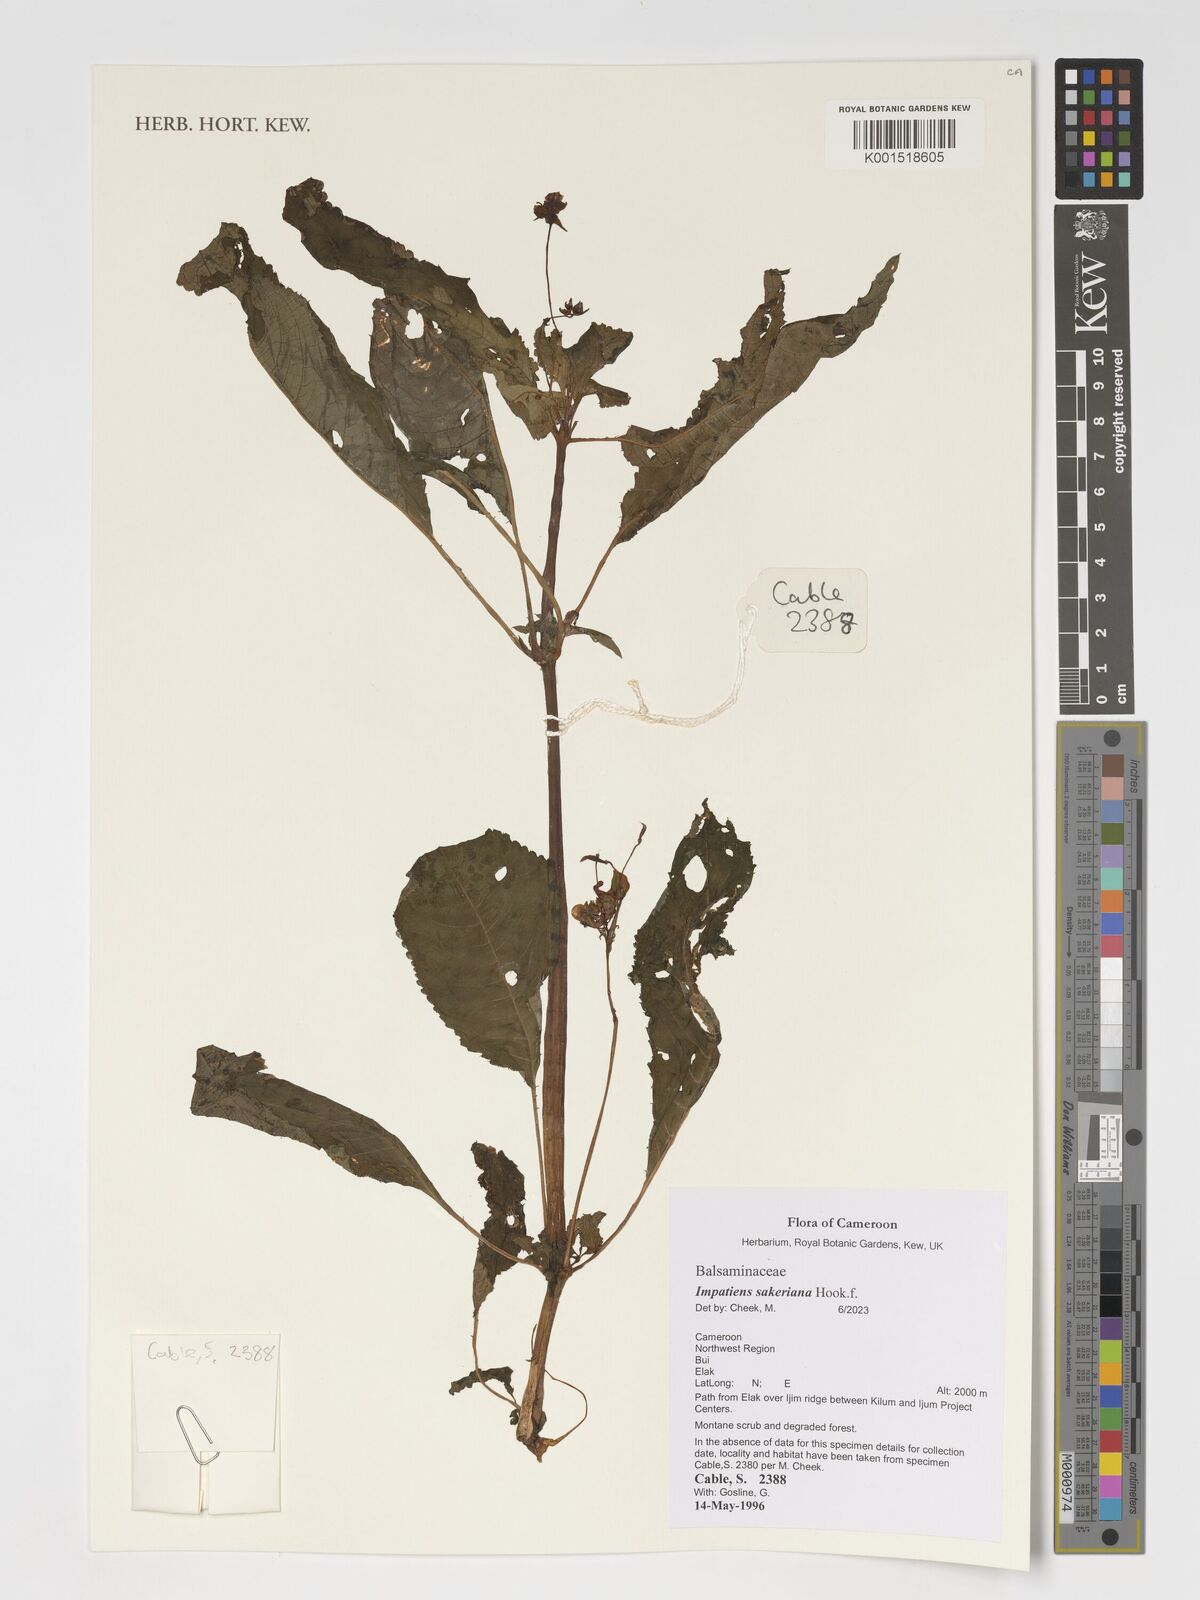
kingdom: Plantae
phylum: Tracheophyta
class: Magnoliopsida
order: Ericales
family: Balsaminaceae
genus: Impatiens
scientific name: Impatiens sakeriana
